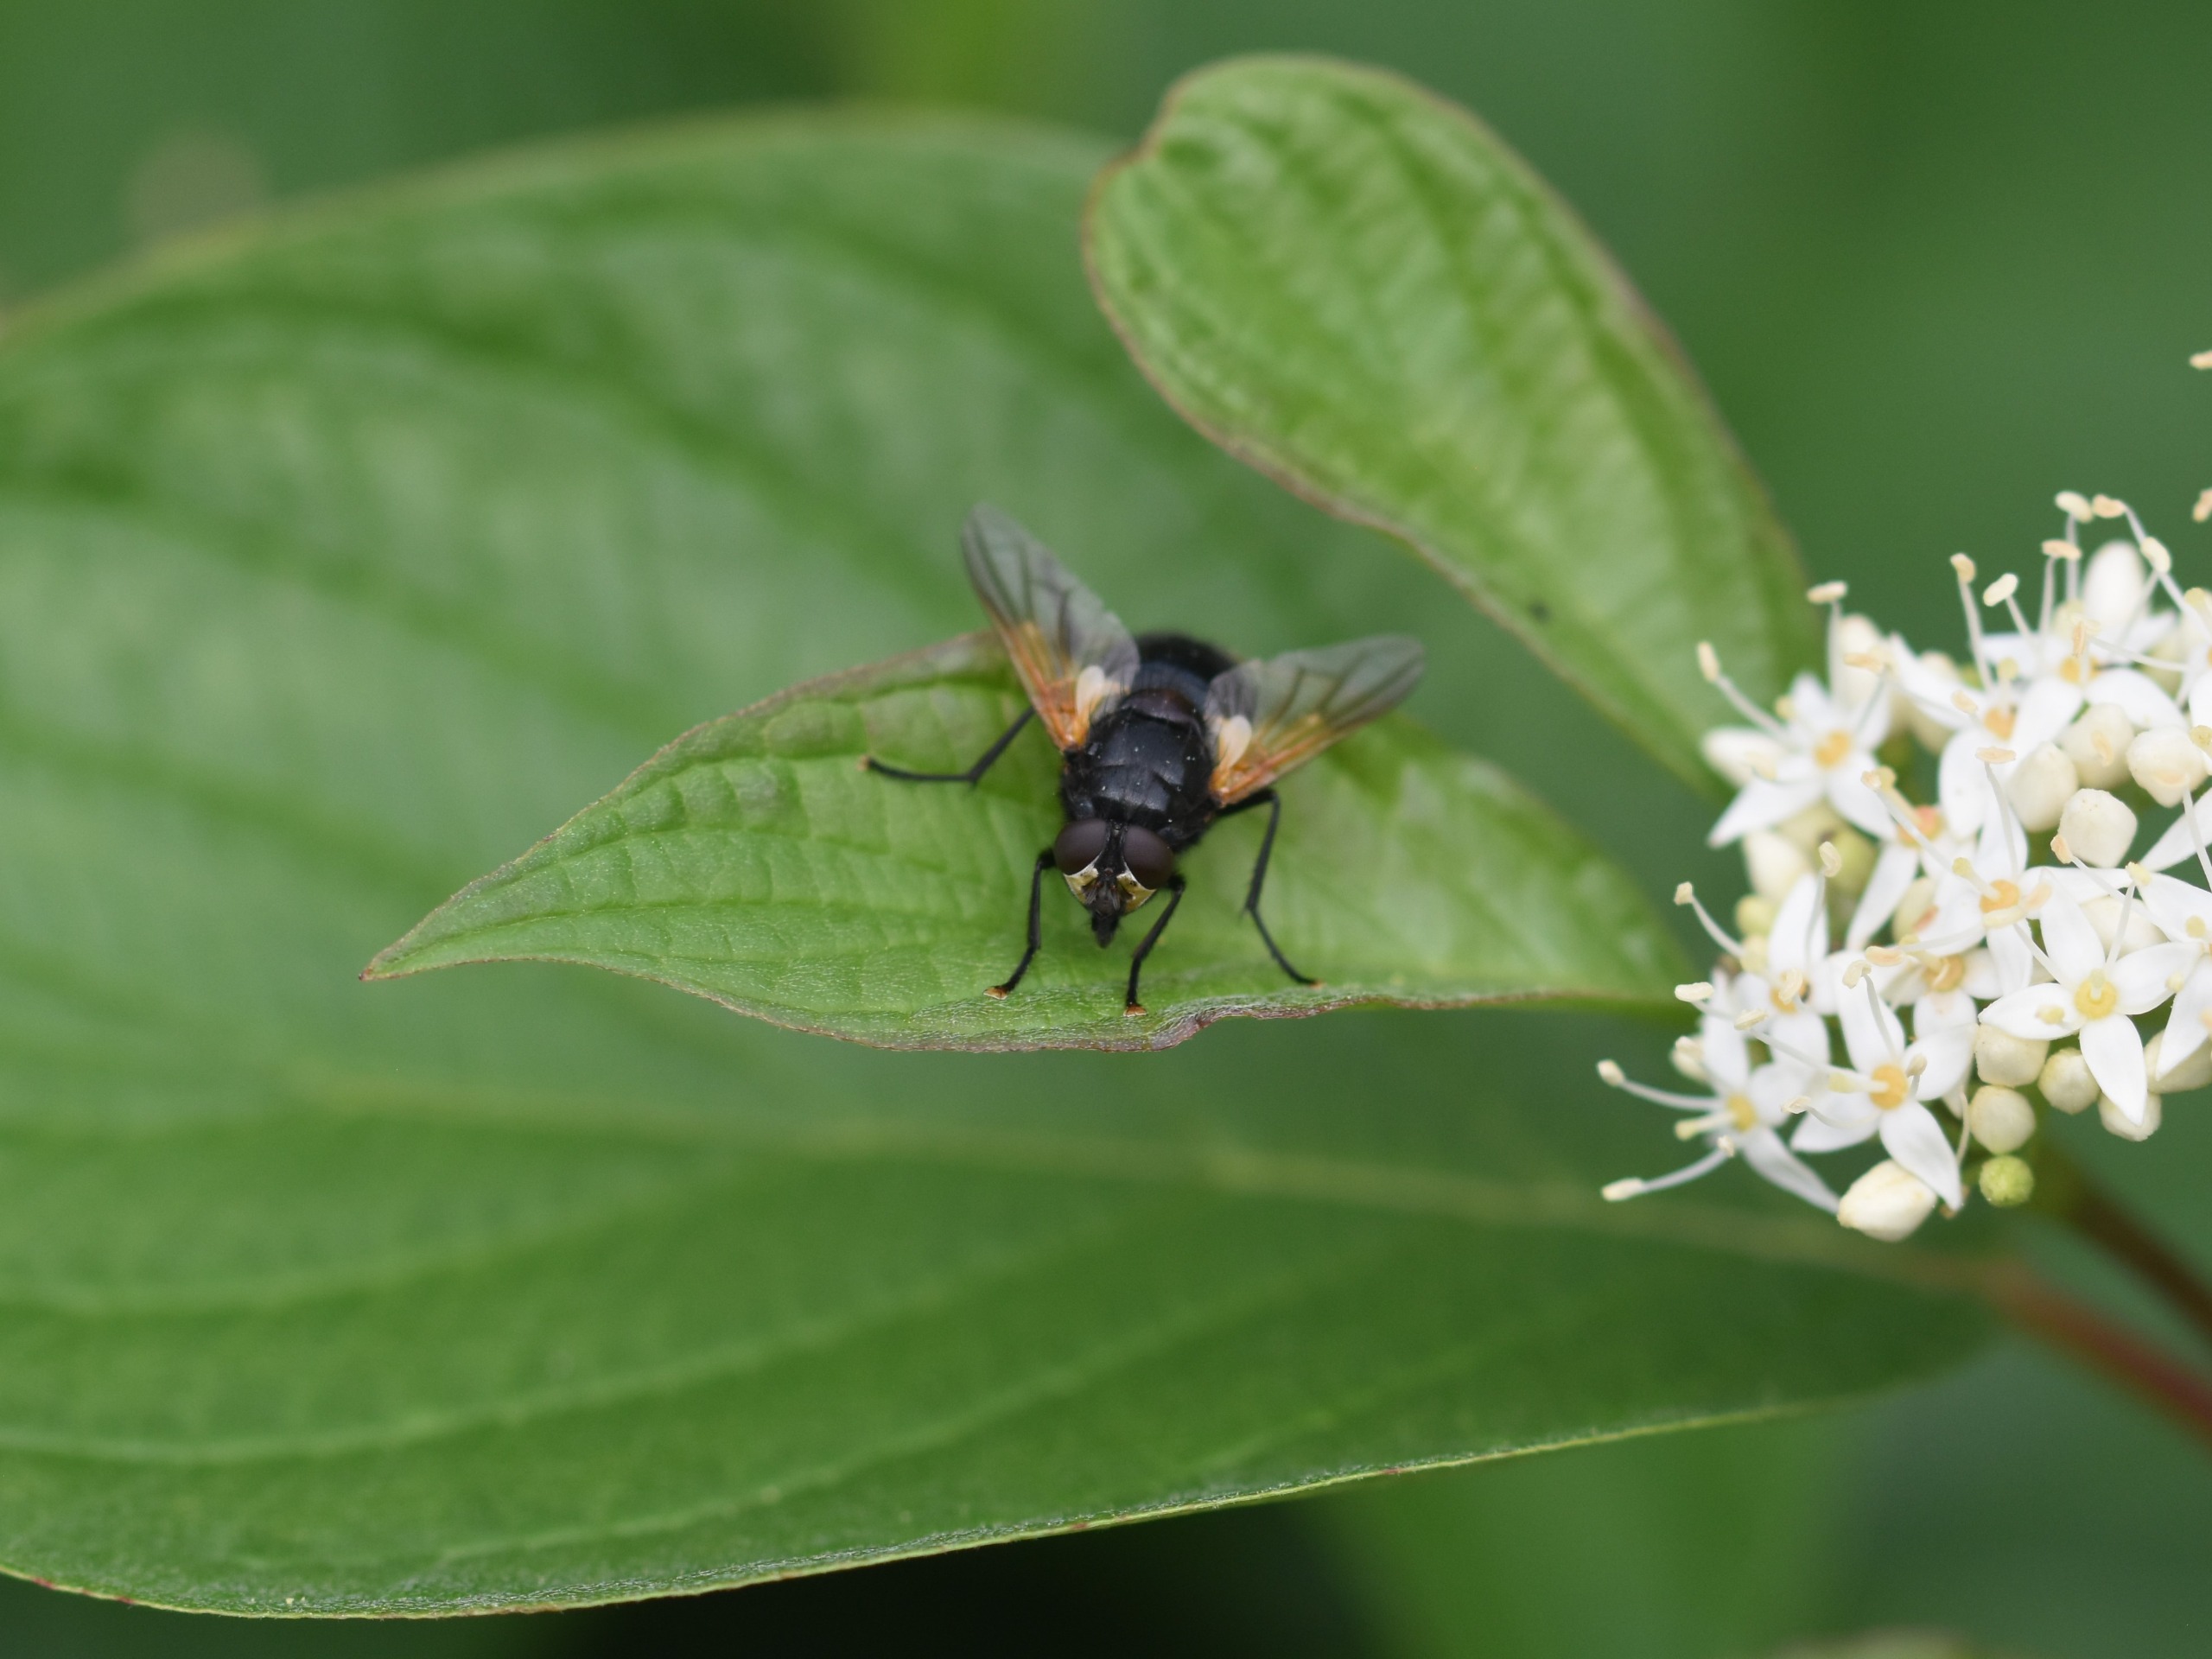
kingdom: Animalia
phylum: Arthropoda
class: Insecta
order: Diptera
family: Muscidae
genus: Mesembrina
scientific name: Mesembrina meridiana
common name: Gulvinget flue
